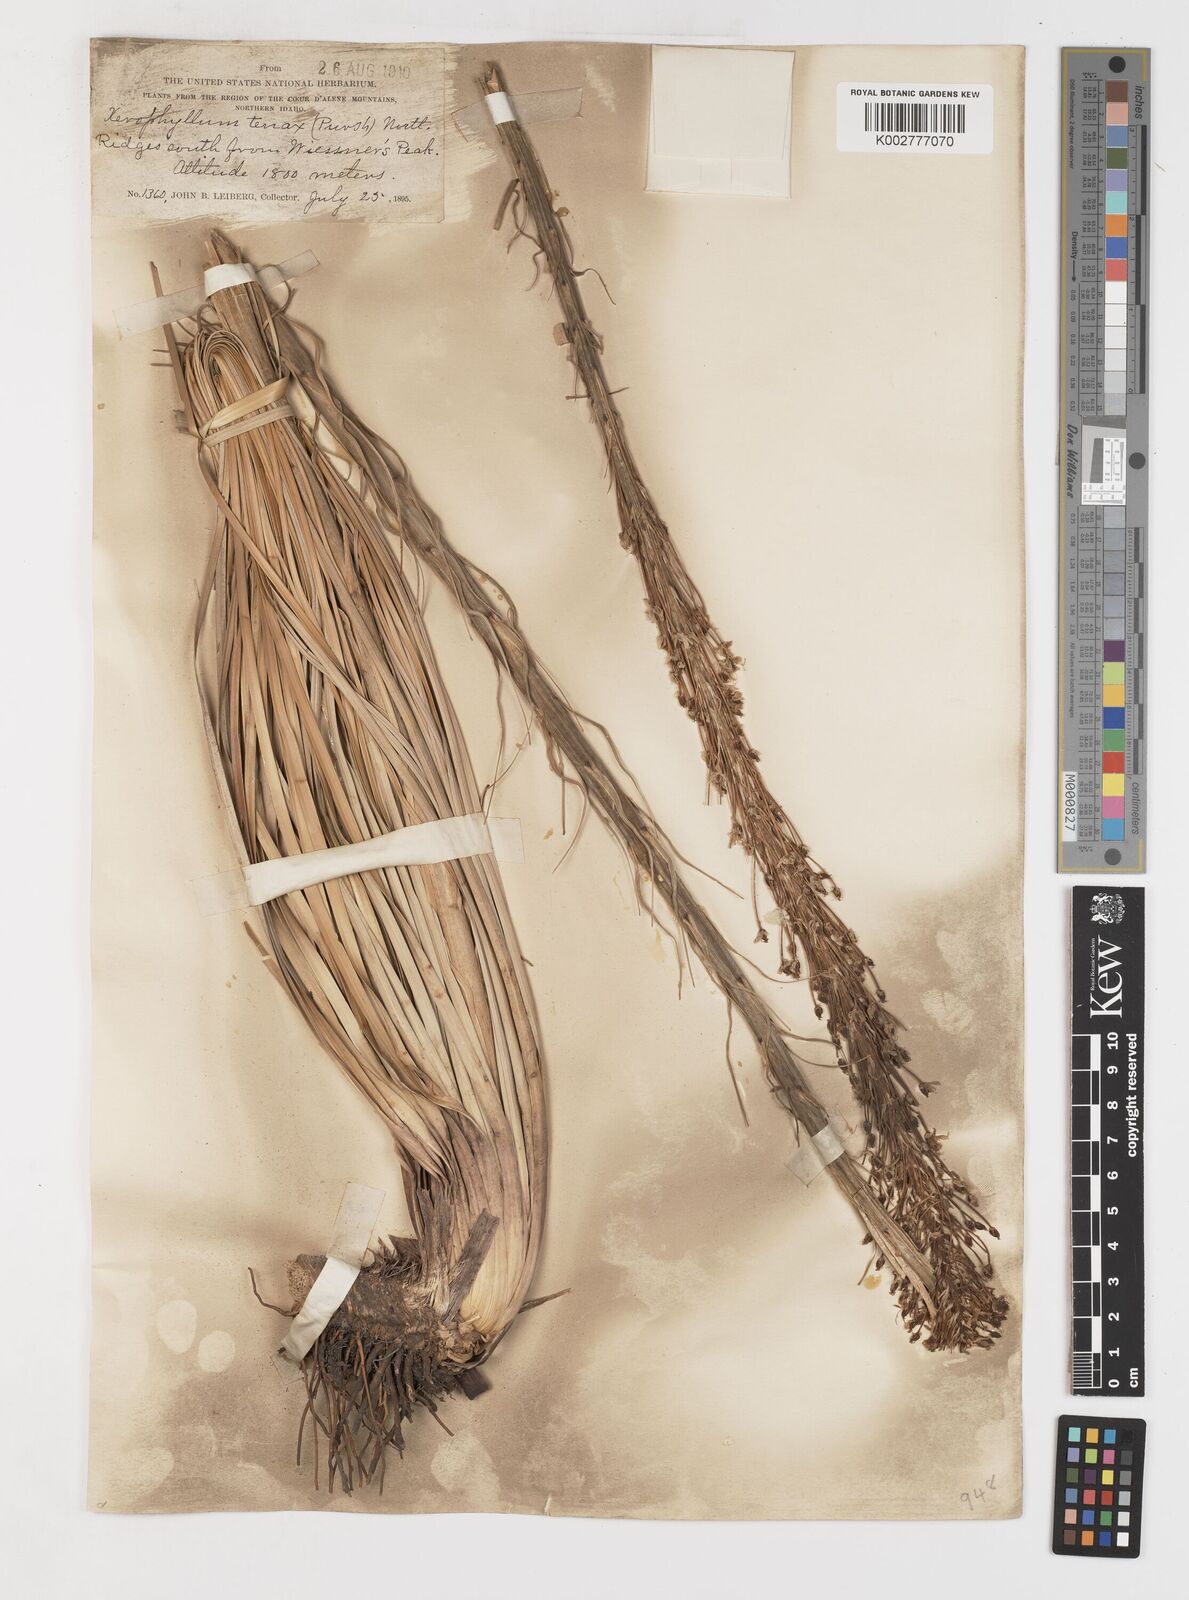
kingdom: Plantae
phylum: Tracheophyta
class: Liliopsida
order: Liliales
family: Melanthiaceae
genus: Xerophyllum
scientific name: Xerophyllum tenax
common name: Bear-grass
